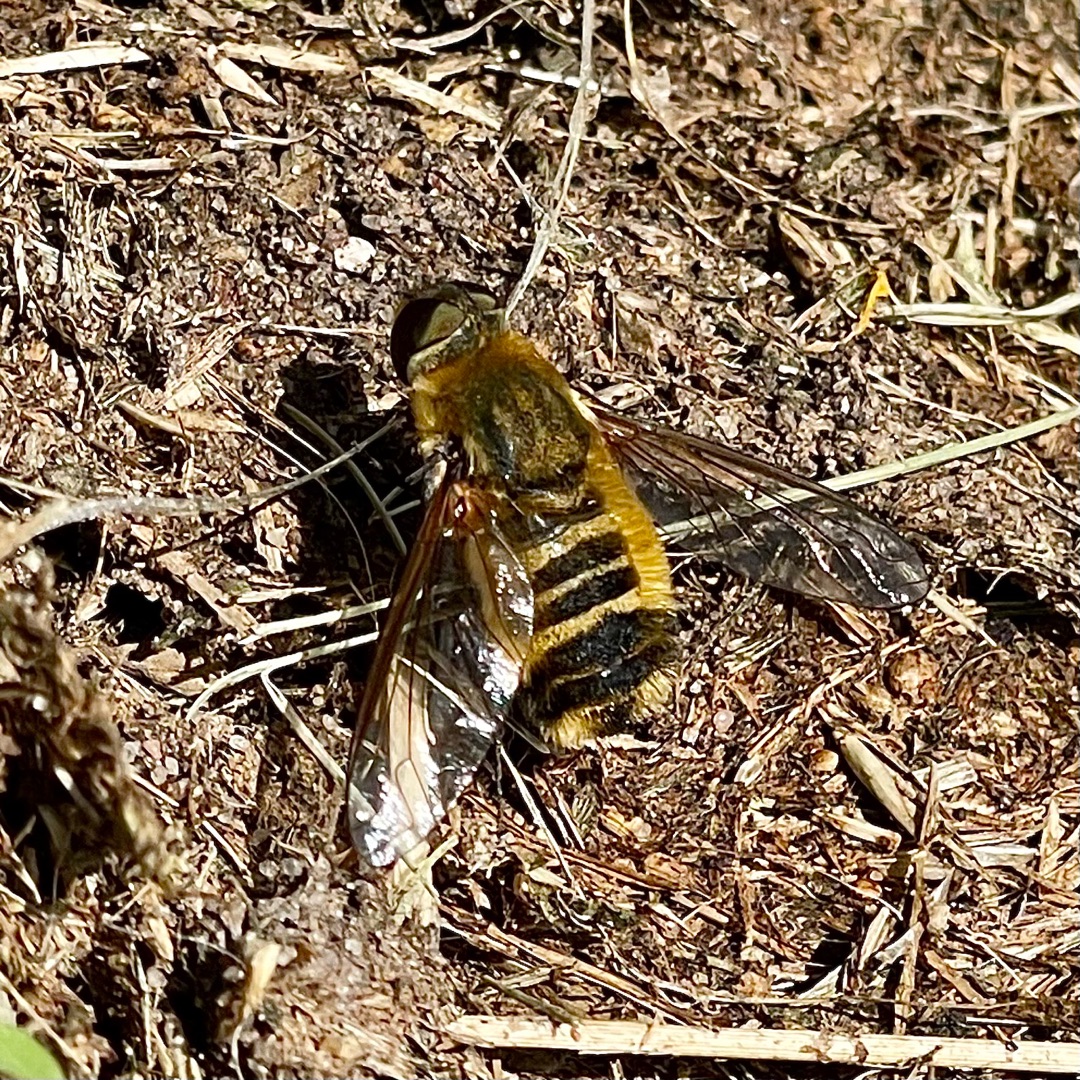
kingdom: Animalia
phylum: Arthropoda
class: Insecta
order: Diptera
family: Bombyliidae
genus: Villa
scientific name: Villa hottentotta
